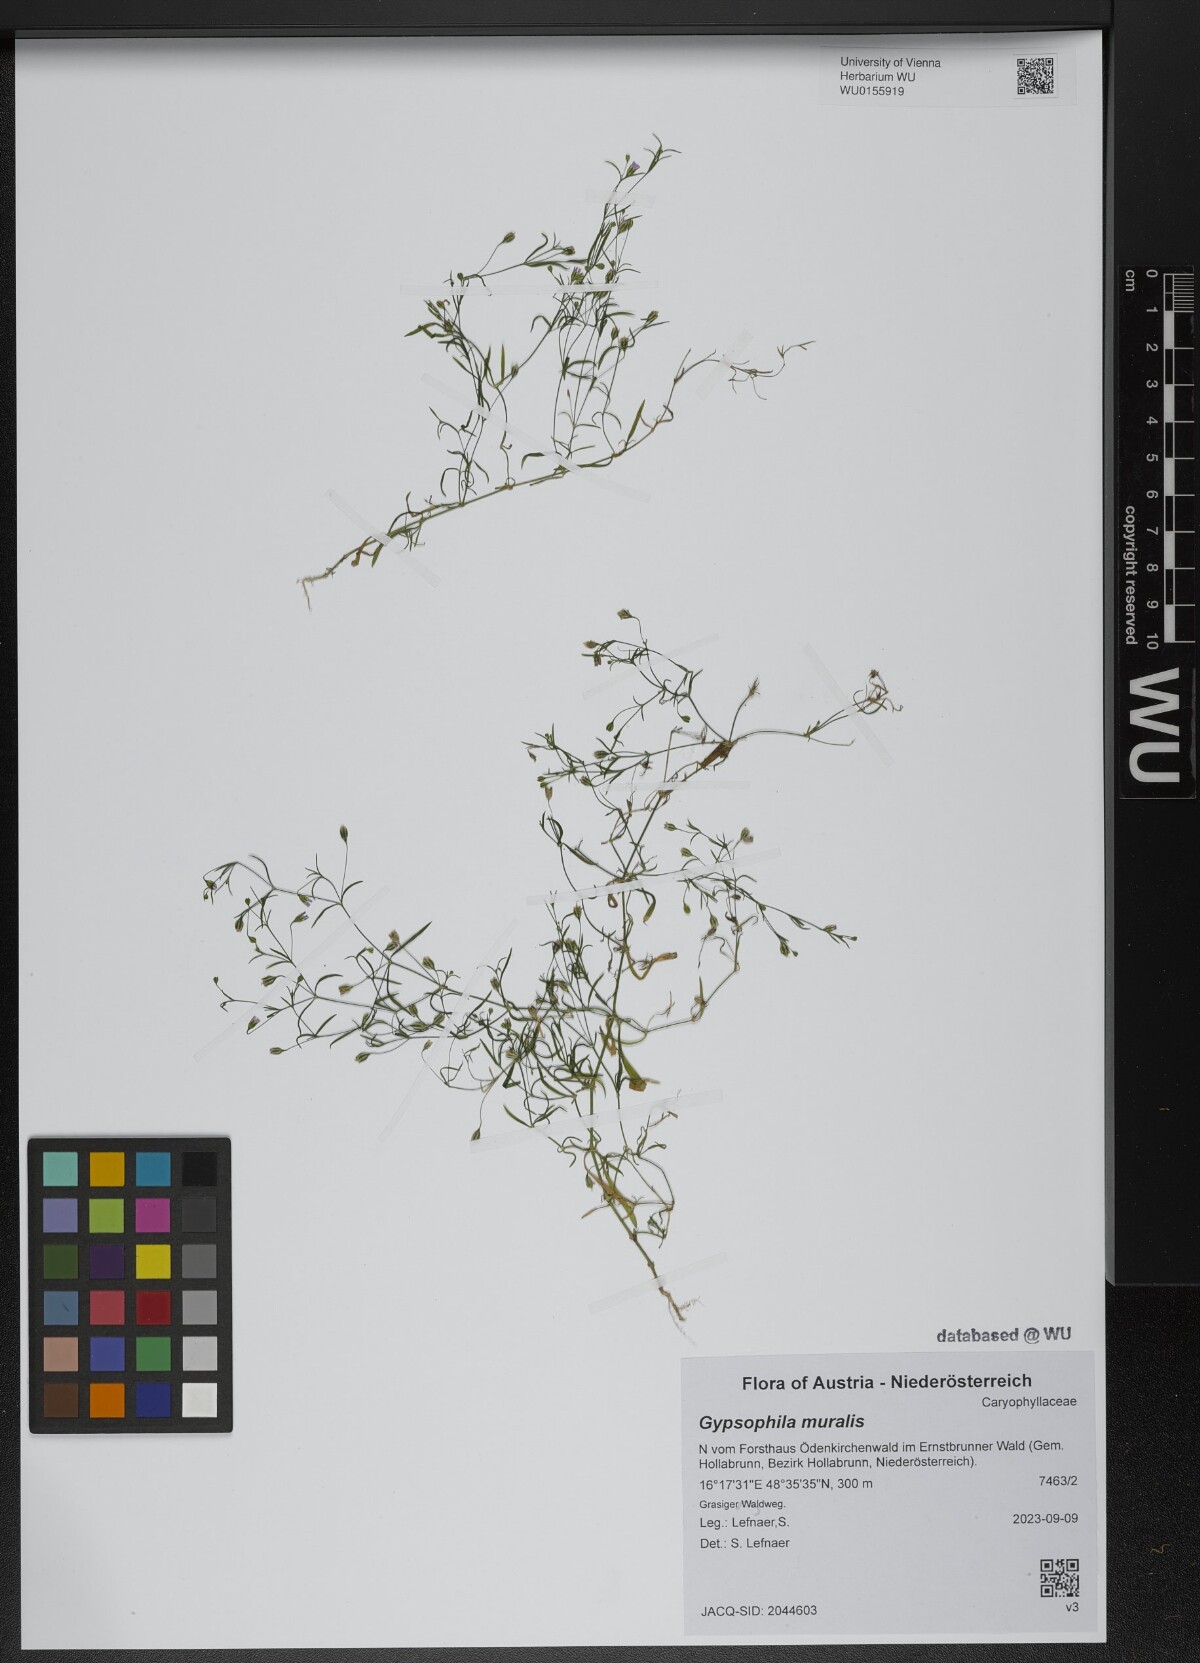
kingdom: Plantae
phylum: Tracheophyta
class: Magnoliopsida
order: Caryophyllales
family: Caryophyllaceae
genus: Psammophiliella
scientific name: Psammophiliella muralis
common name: Cushion baby's-breath
